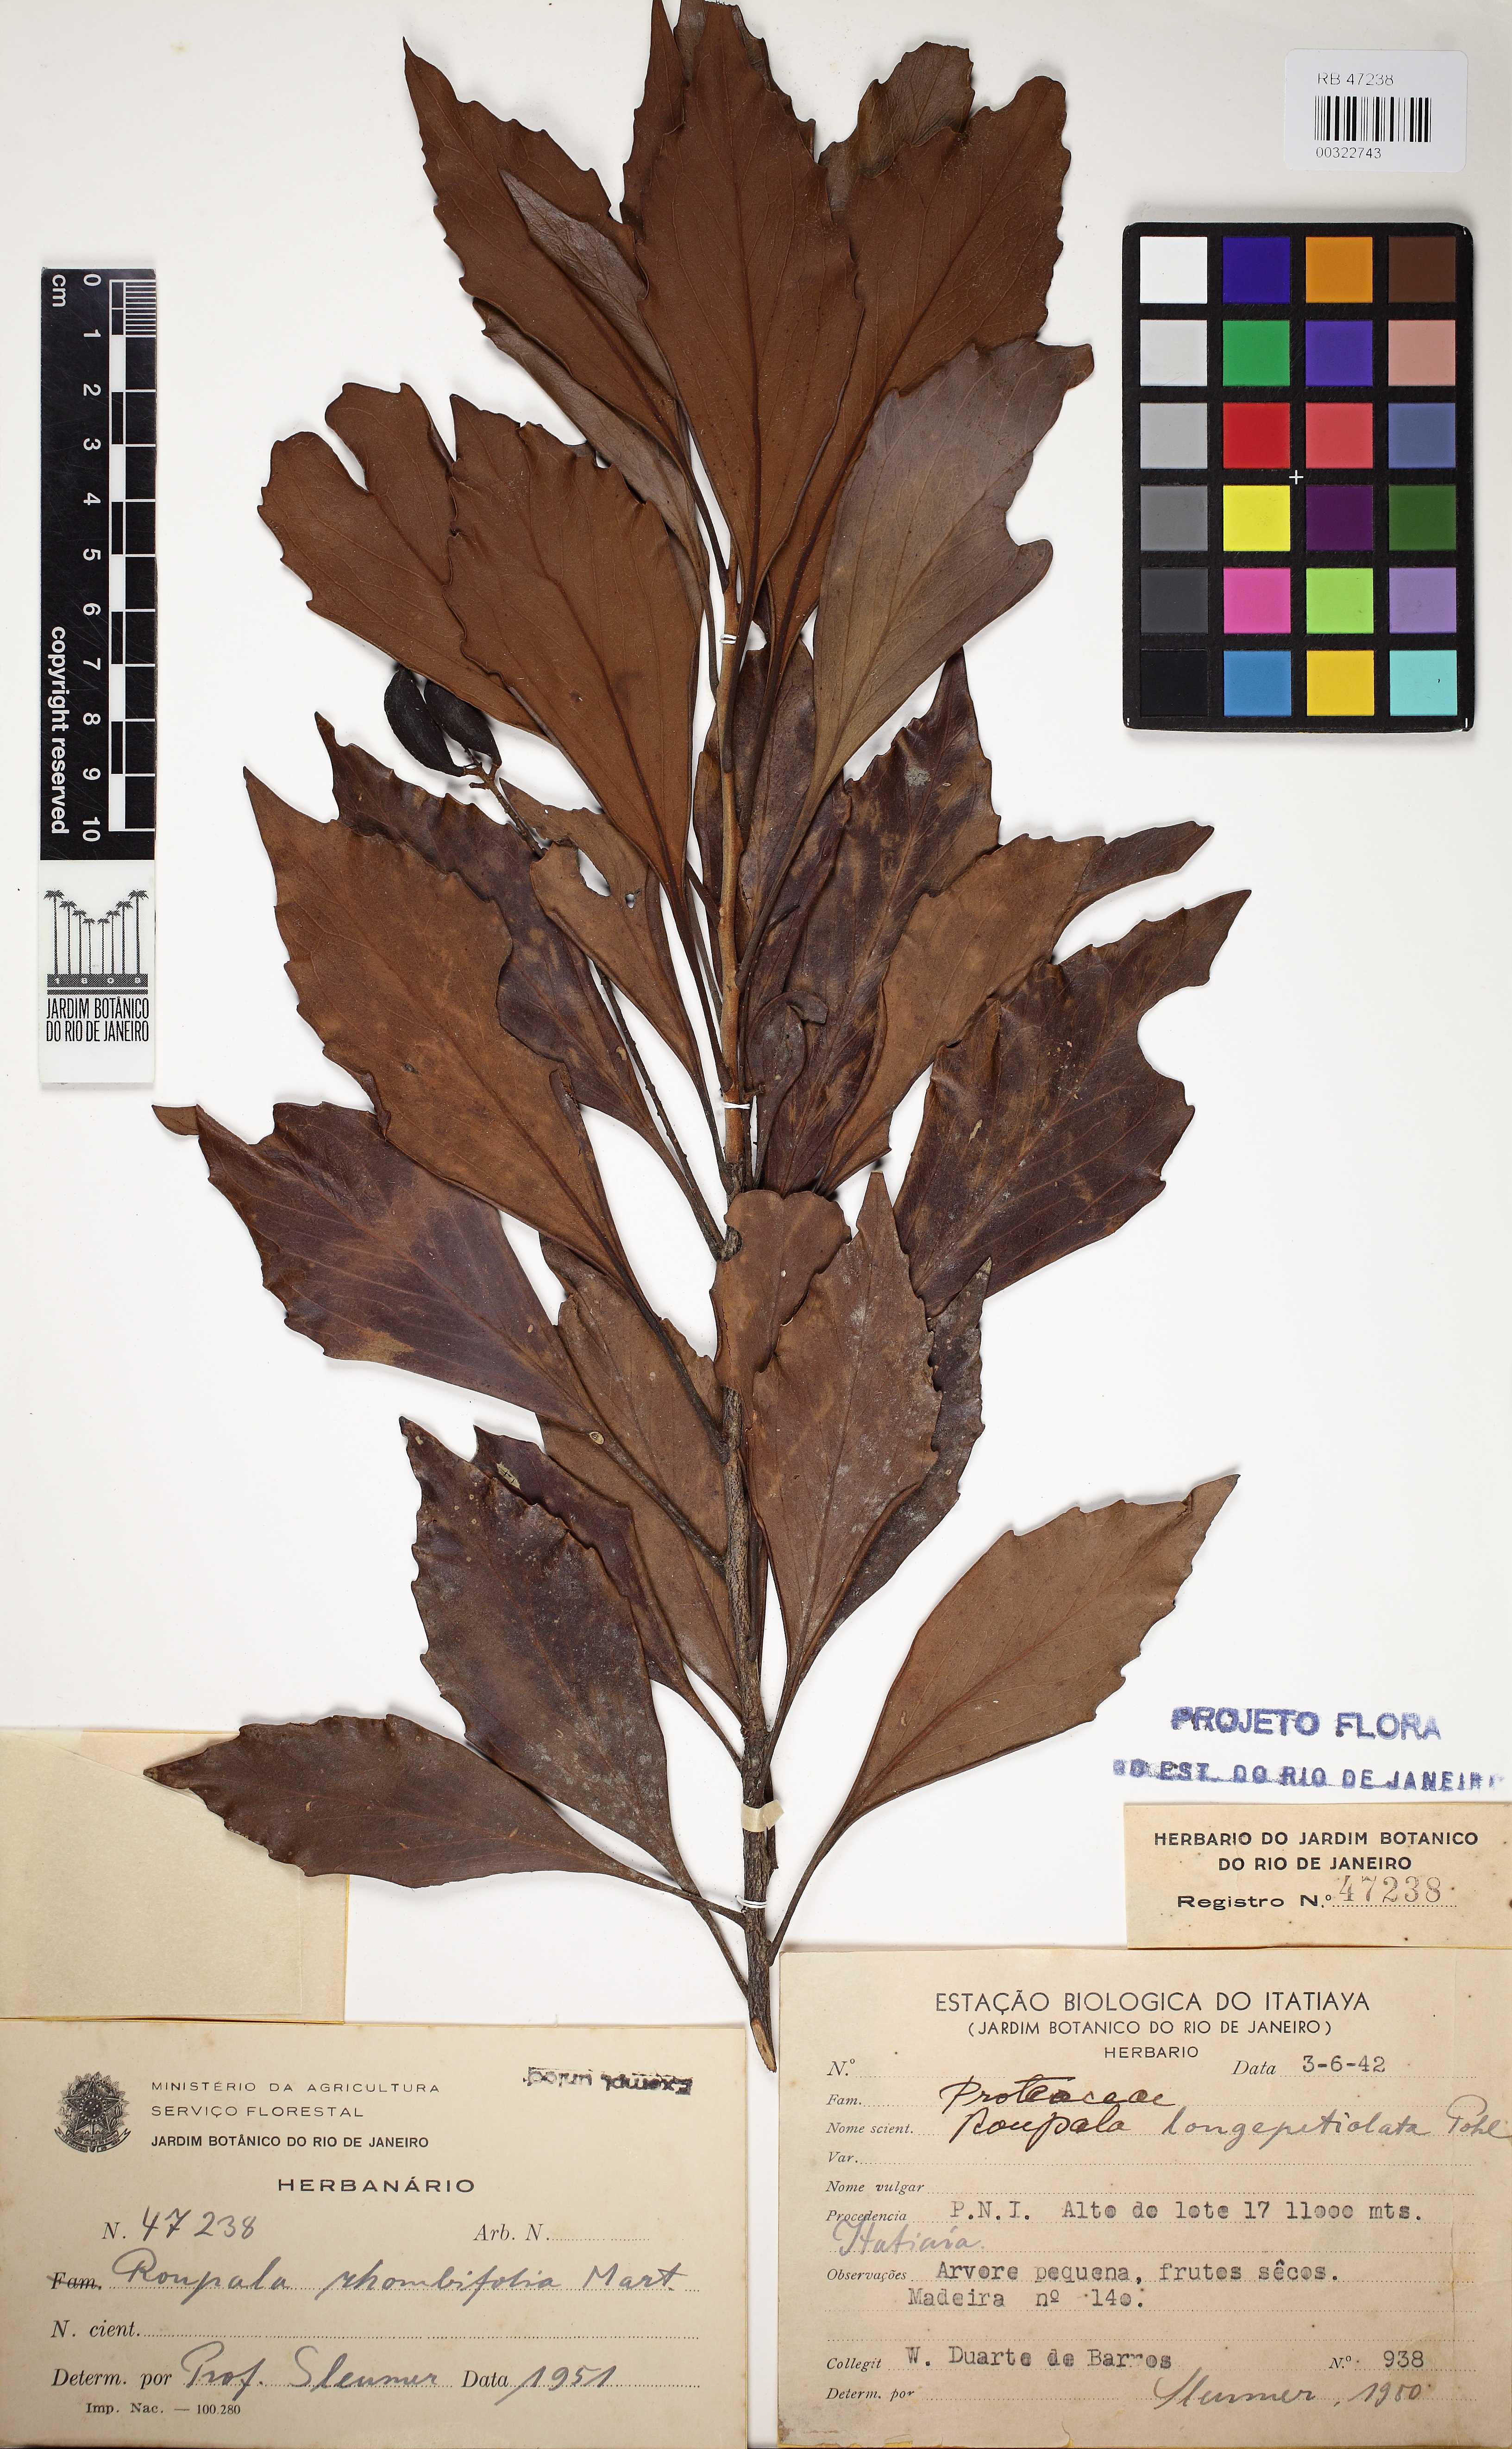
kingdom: Plantae
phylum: Tracheophyta
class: Magnoliopsida
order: Proteales
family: Proteaceae
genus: Roupala
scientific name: Roupala montana
